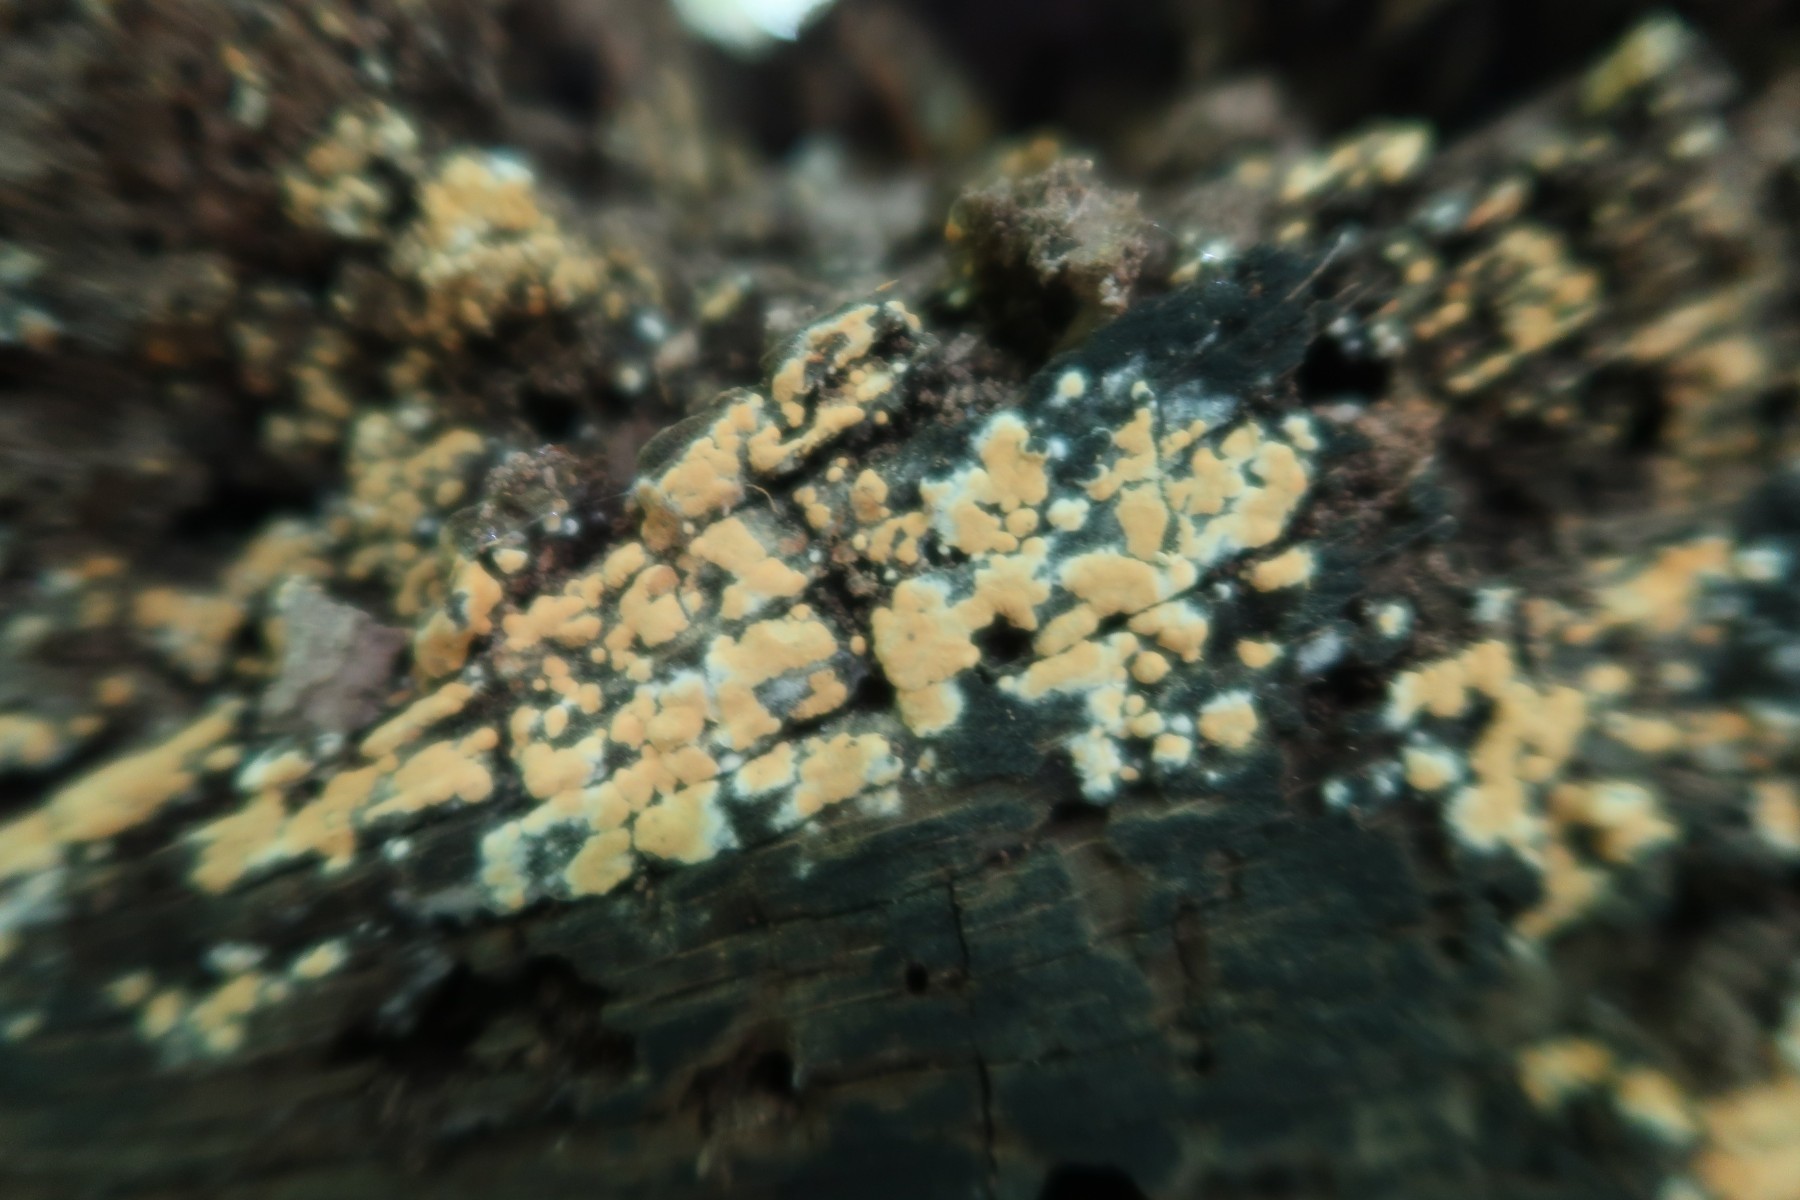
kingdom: Fungi
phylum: Basidiomycota
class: Agaricomycetes
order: Cantharellales
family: Botryobasidiaceae
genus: Botryobasidium
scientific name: Botryobasidium aureum
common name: gylden spindhinde
